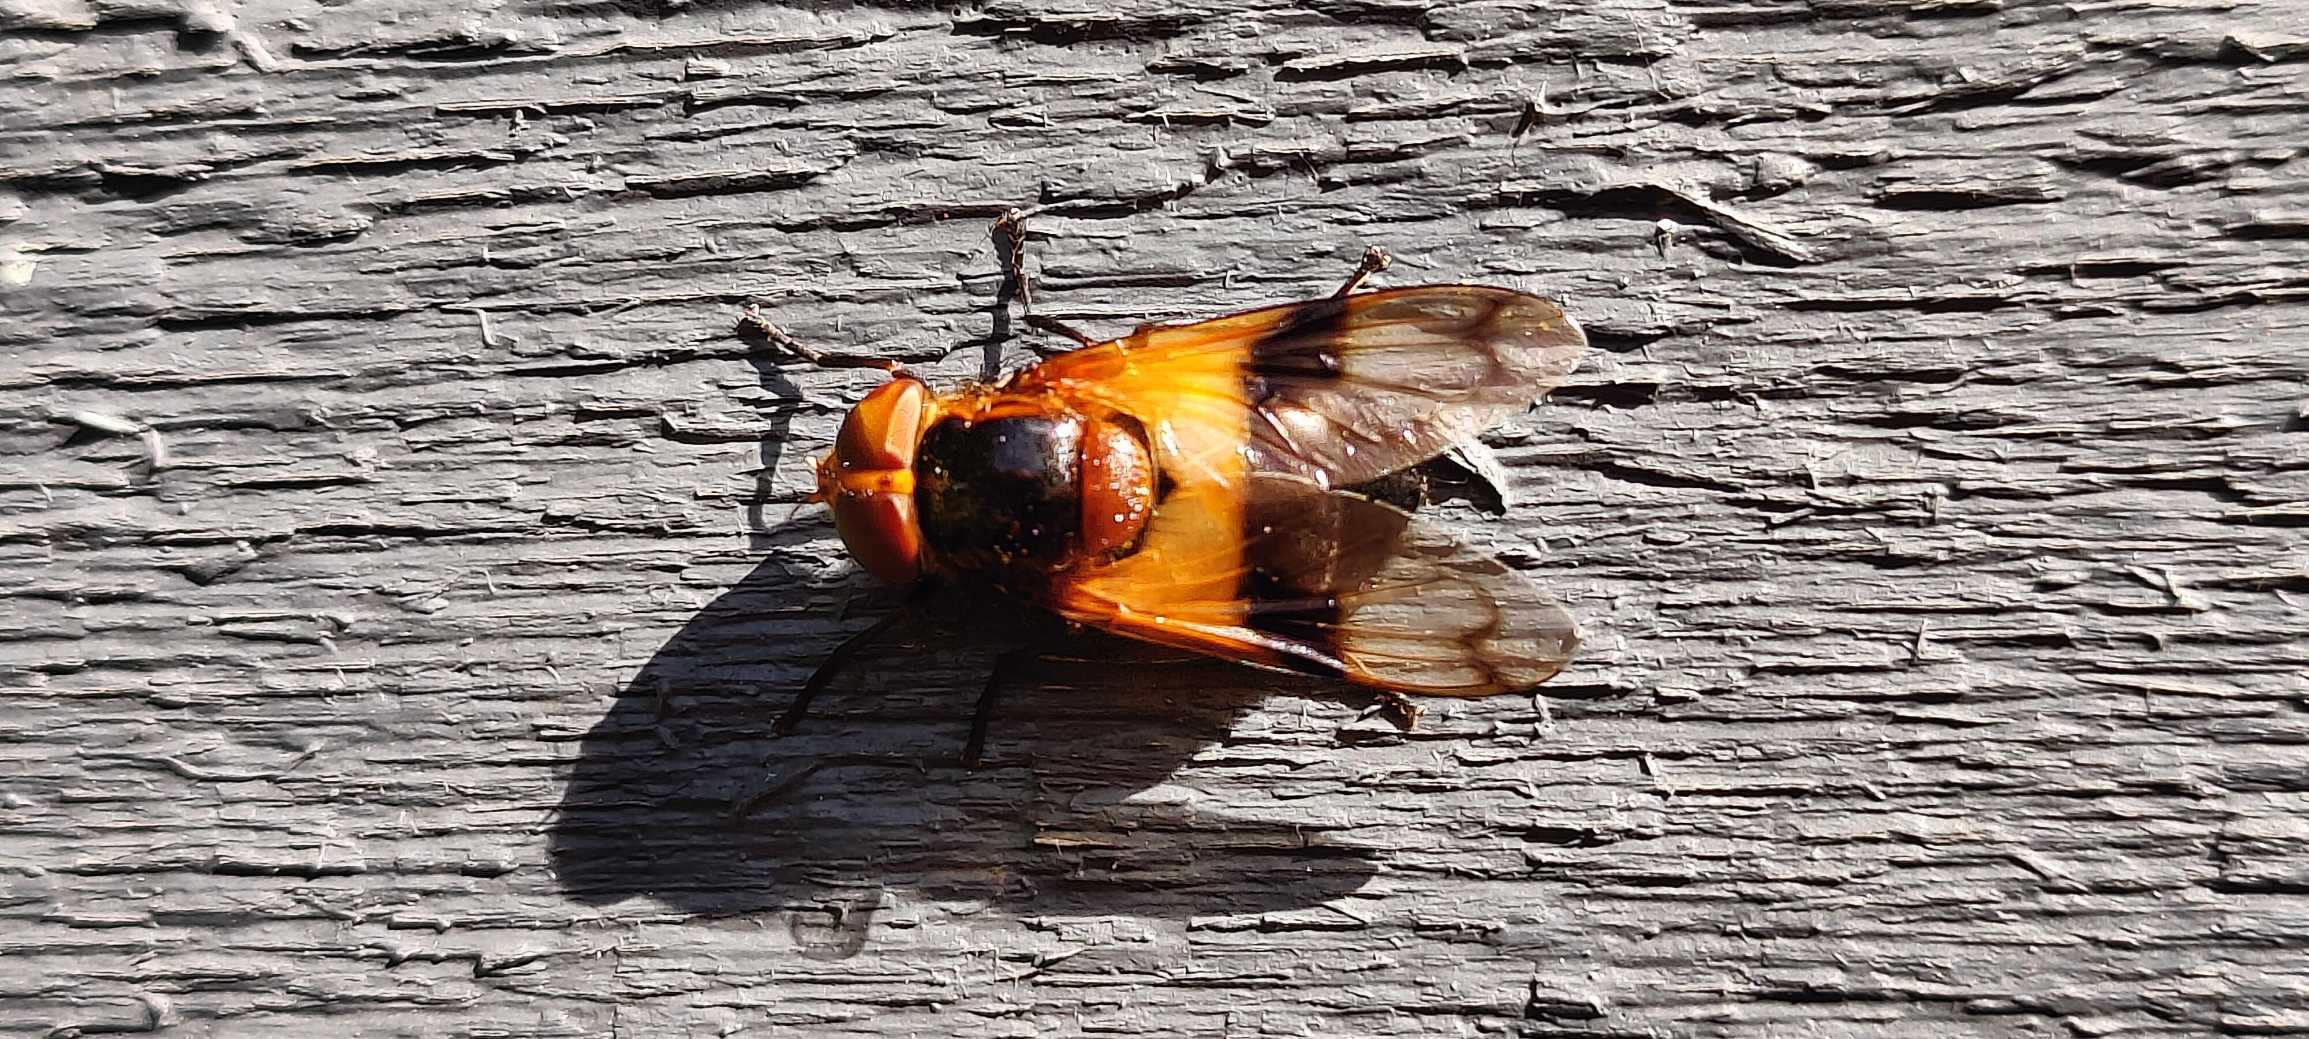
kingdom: Animalia
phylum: Arthropoda
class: Insecta
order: Diptera
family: Syrphidae
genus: Volucella
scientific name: Volucella pellucens
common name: Hvidbåndet humlesvirreflue
